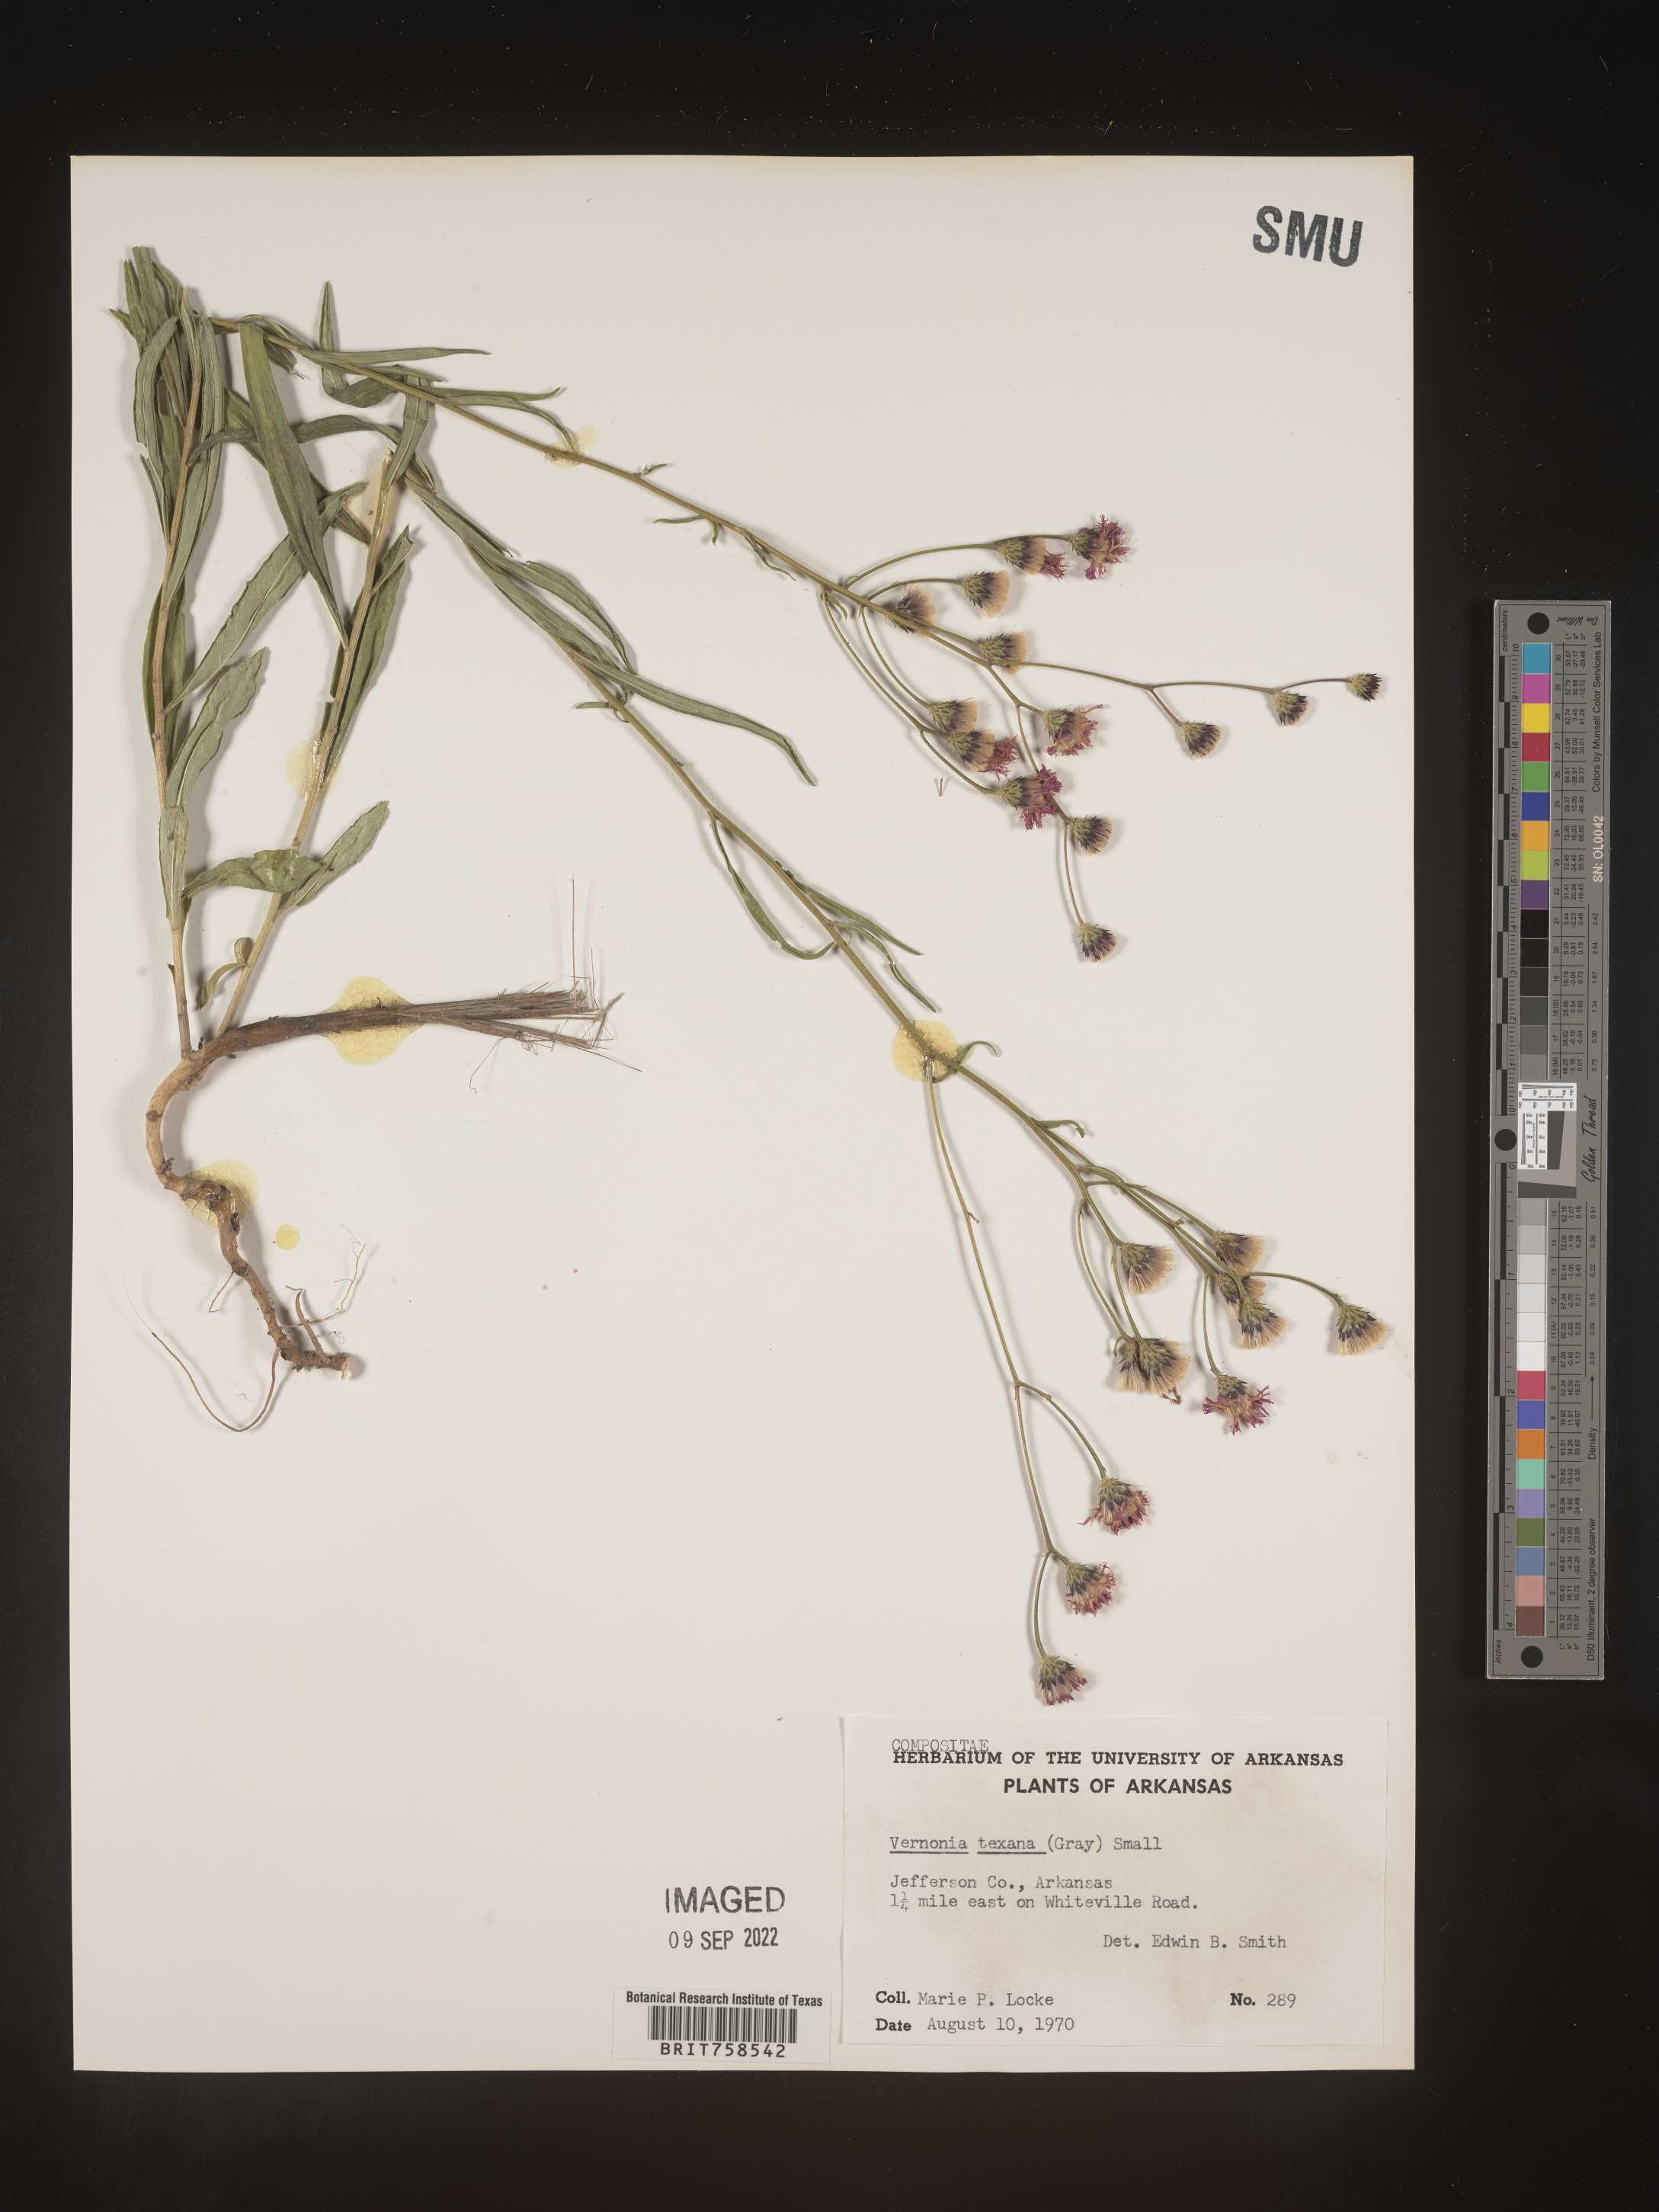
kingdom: Plantae
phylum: Tracheophyta
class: Magnoliopsida
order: Asterales
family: Asteraceae
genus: Vernonia
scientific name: Vernonia texana
